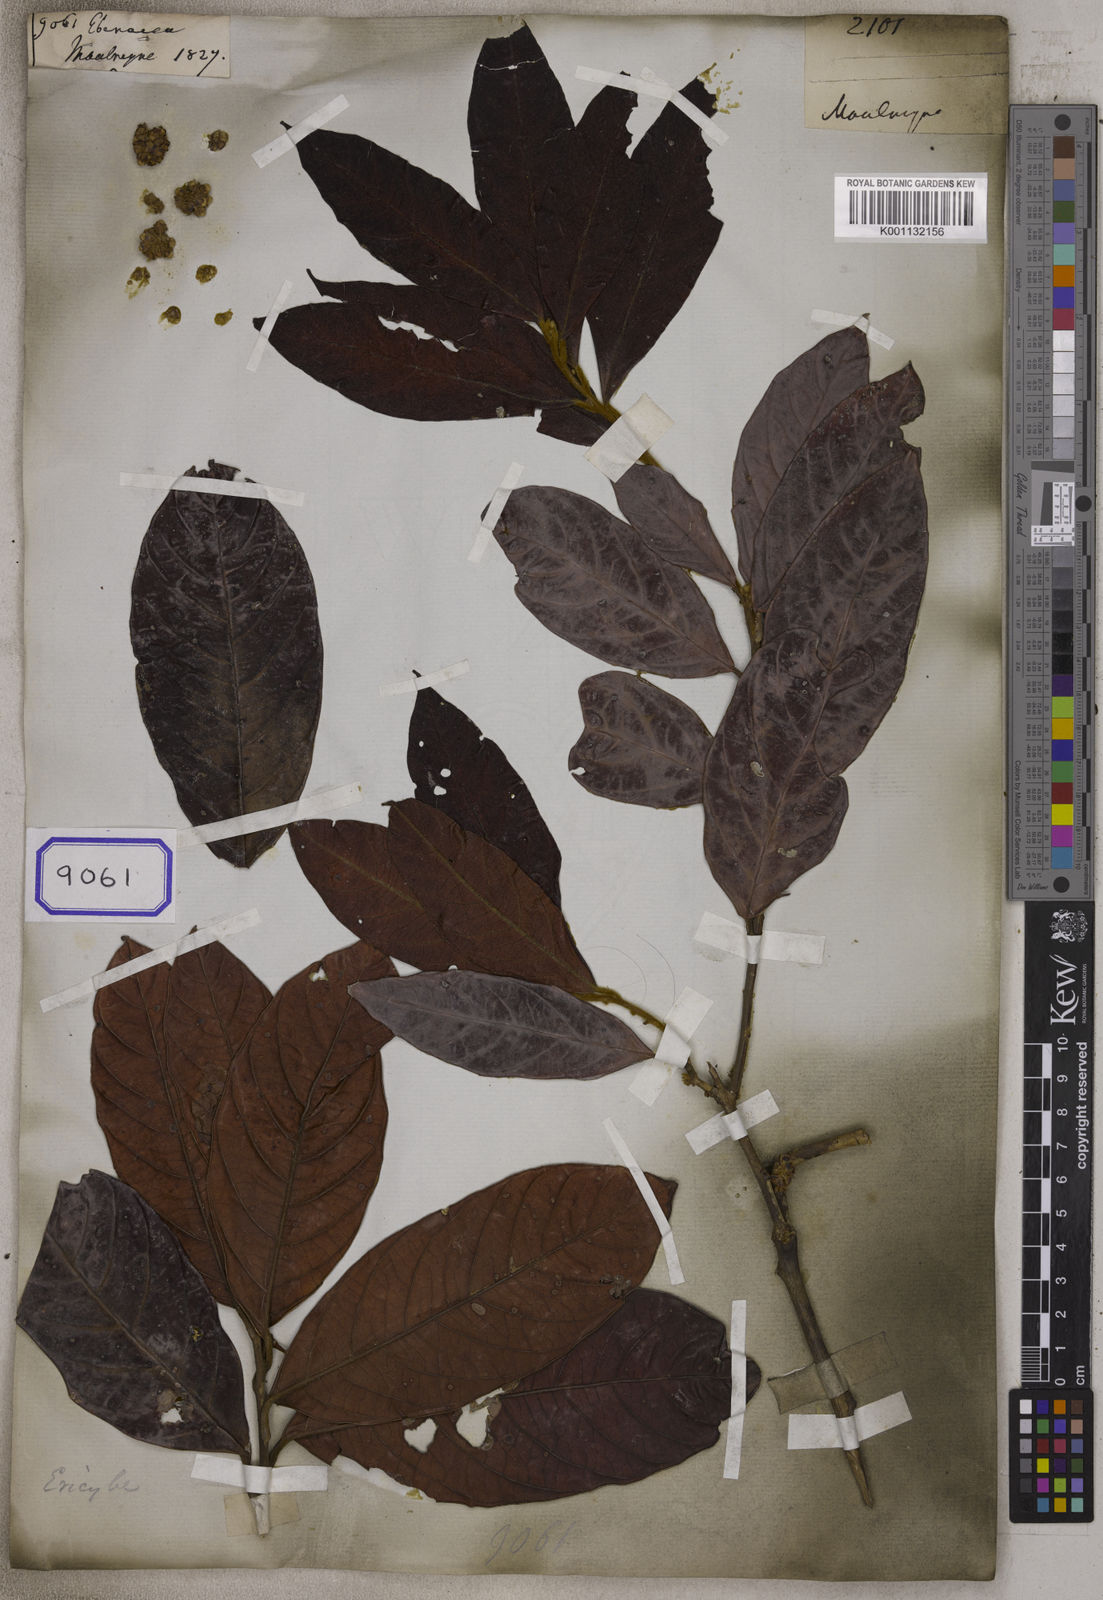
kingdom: Plantae
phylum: Tracheophyta
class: Magnoliopsida
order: Ericales
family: Ebenaceae
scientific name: Ebenaceae
